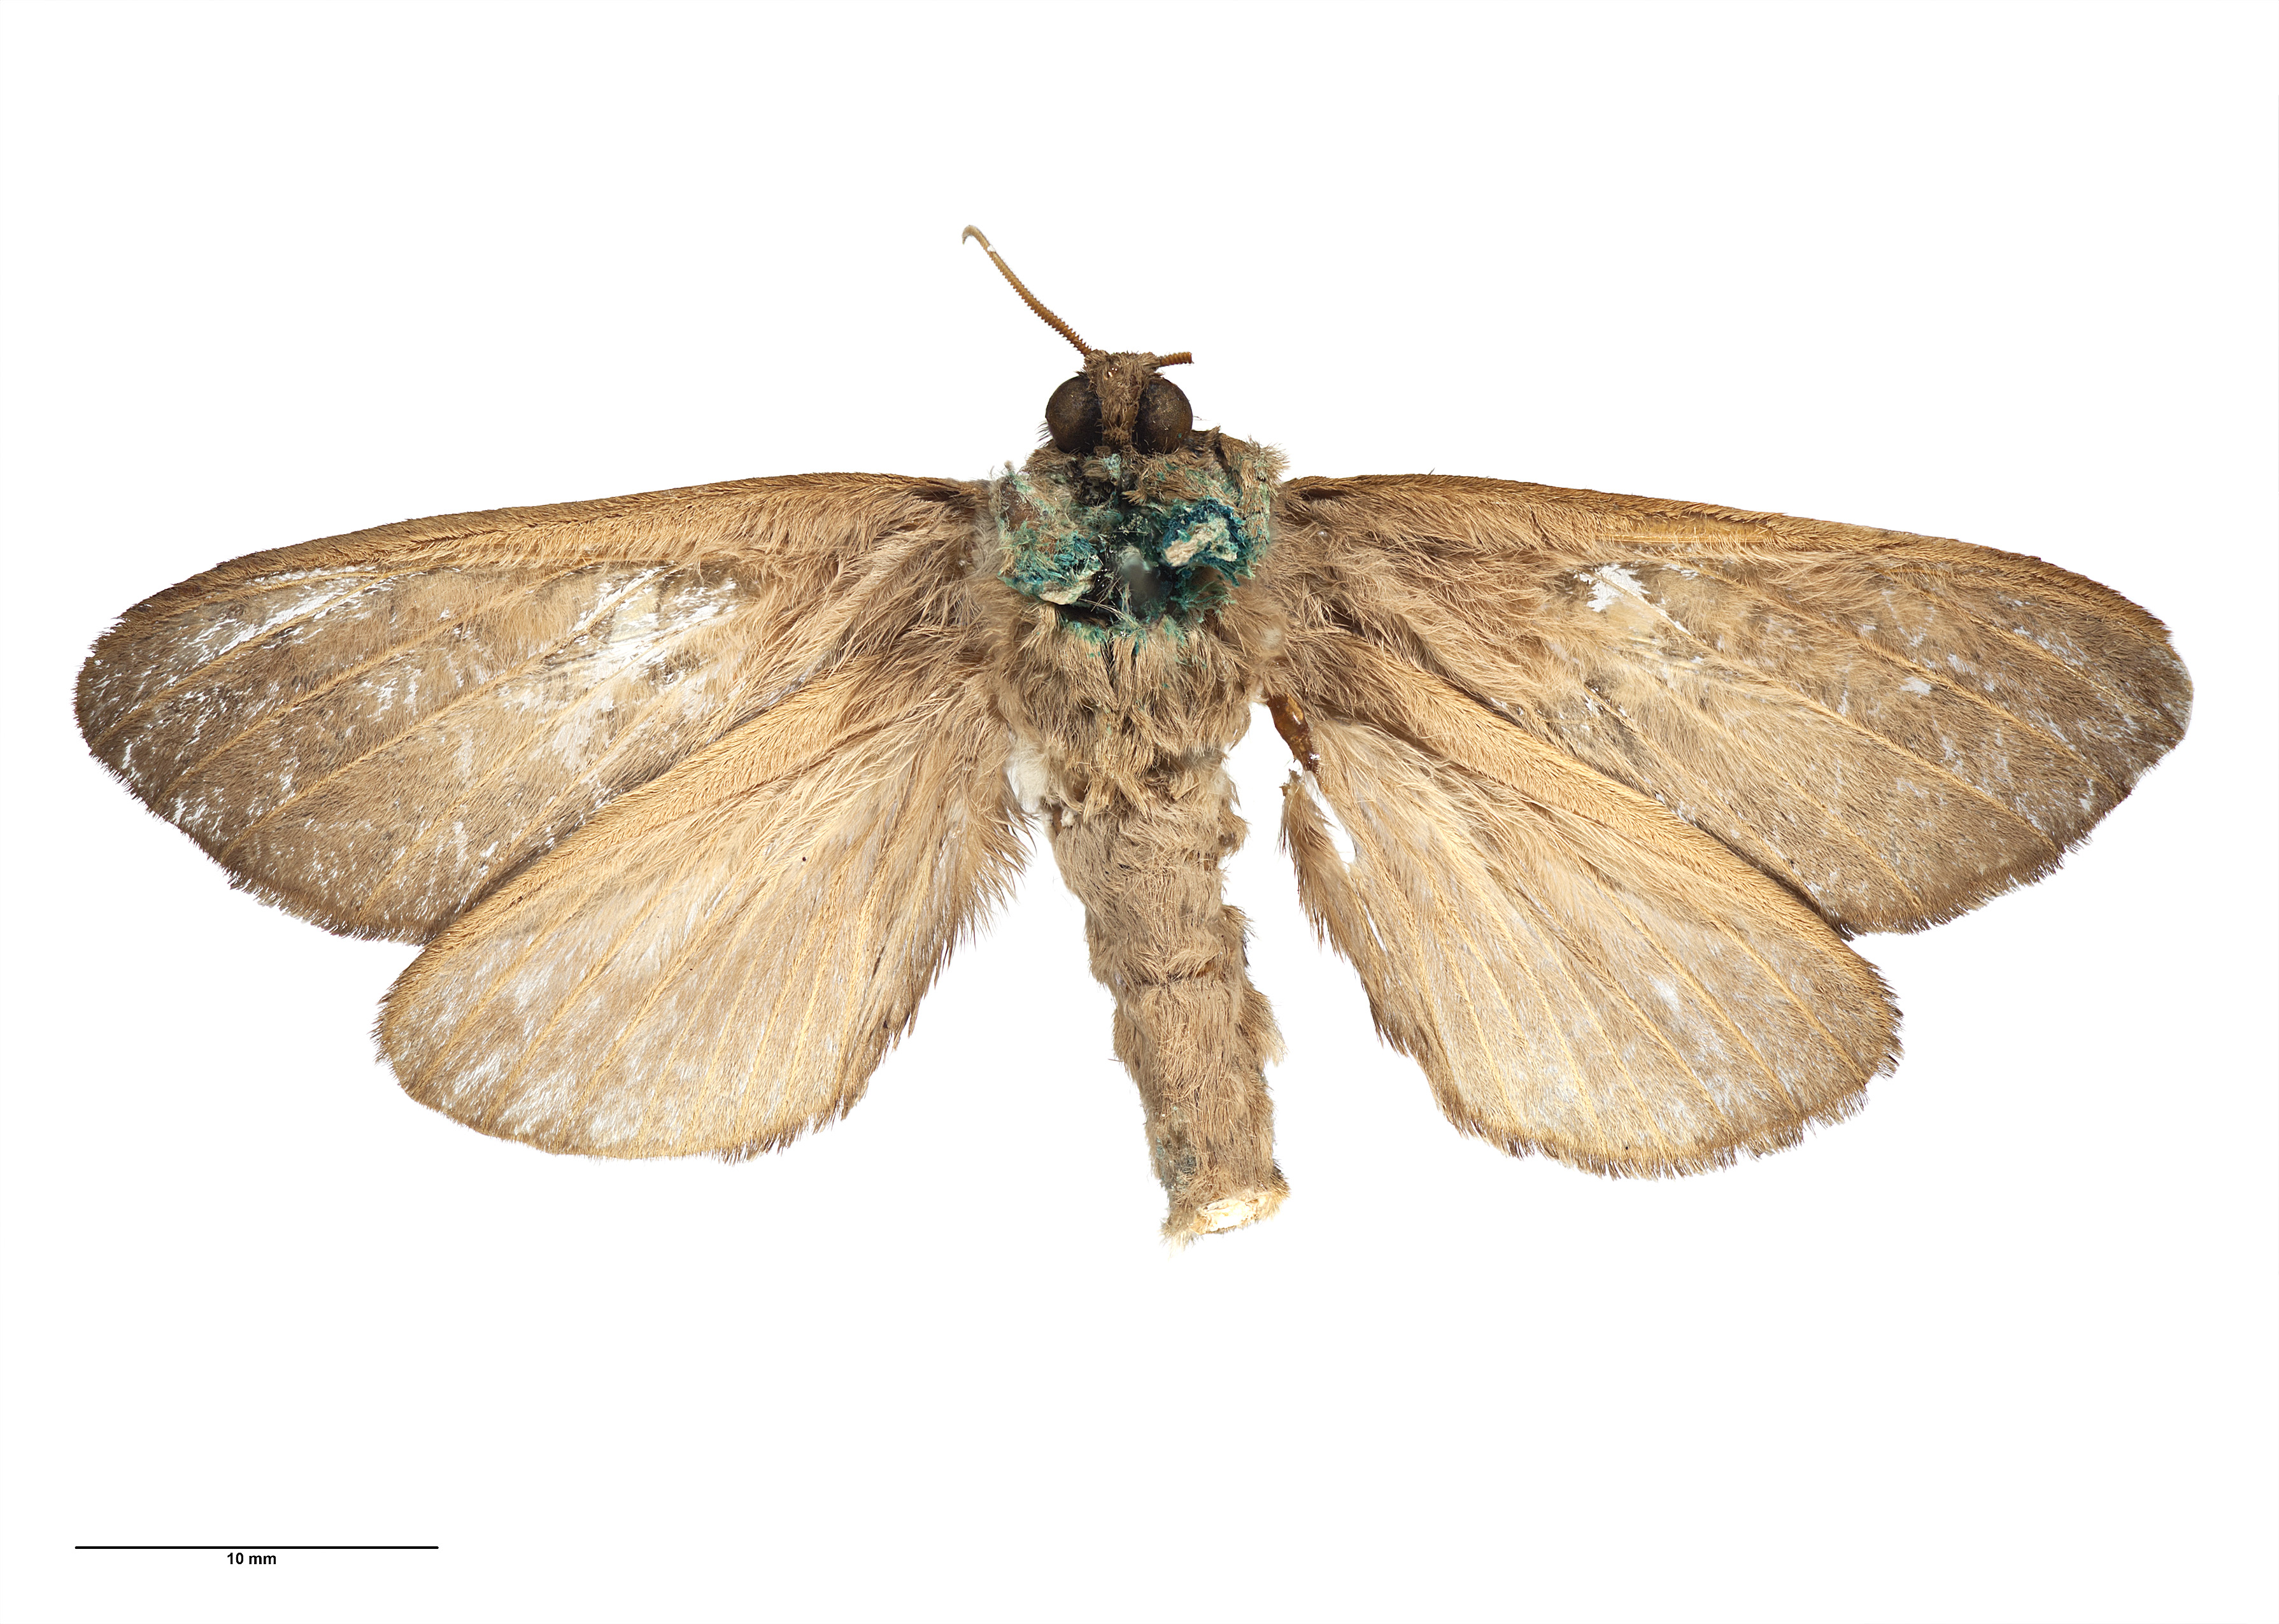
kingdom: Animalia
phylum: Arthropoda
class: Insecta
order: Lepidoptera
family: Hepialidae
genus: Dumbletonius
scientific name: Dumbletonius unimaculata
